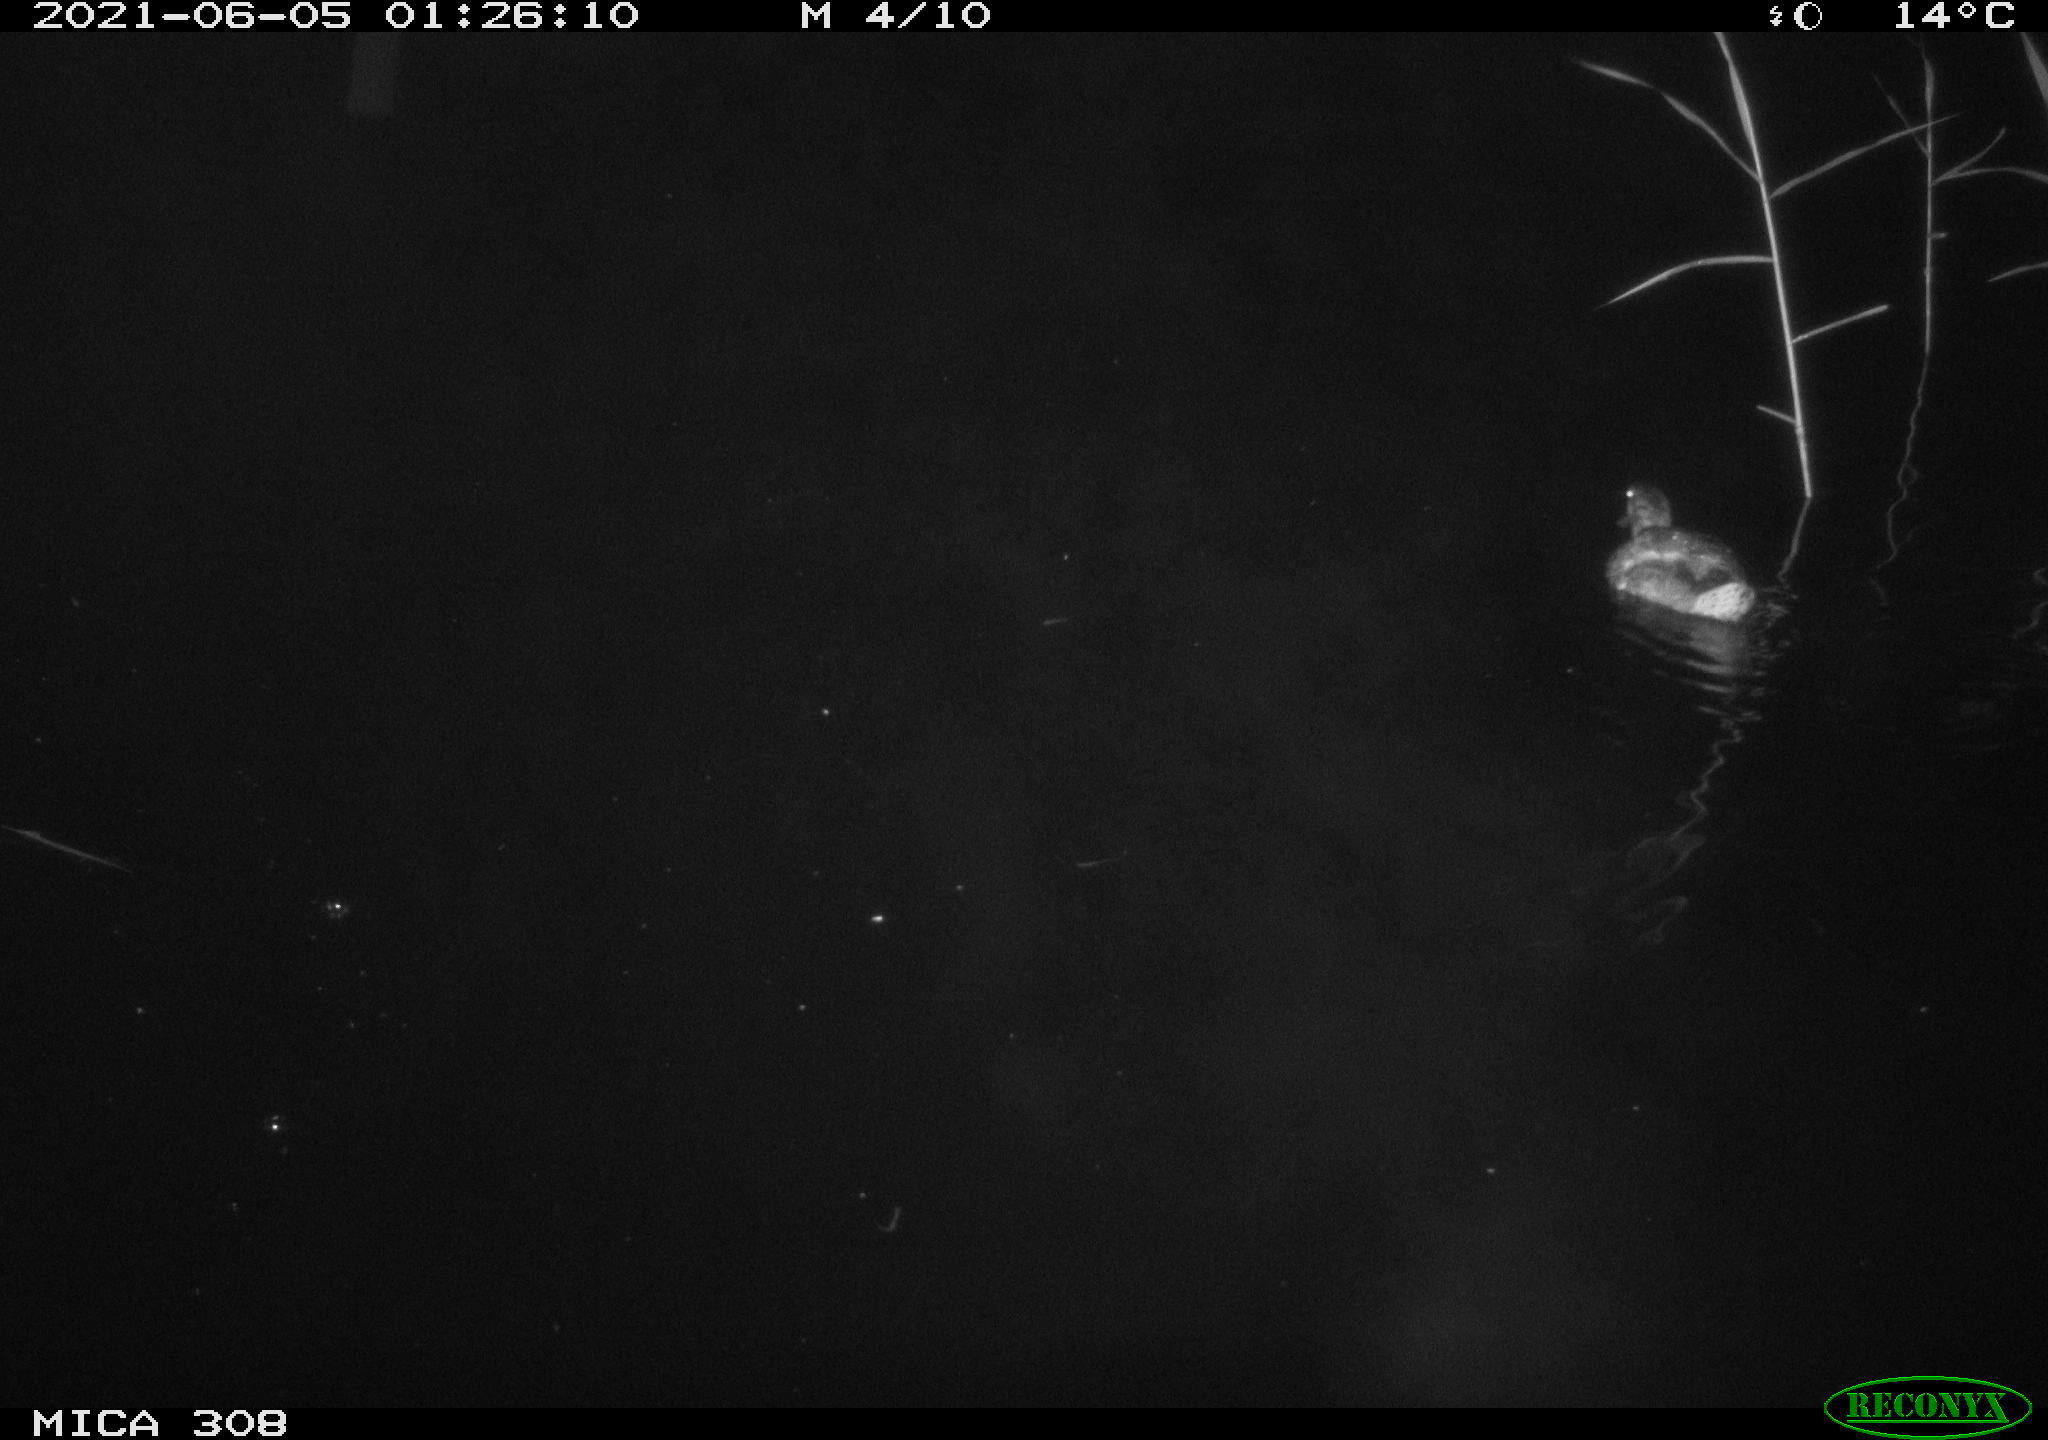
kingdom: Animalia
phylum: Chordata
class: Aves
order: Anseriformes
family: Anatidae
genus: Anas
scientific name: Anas platyrhynchos
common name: Mallard
